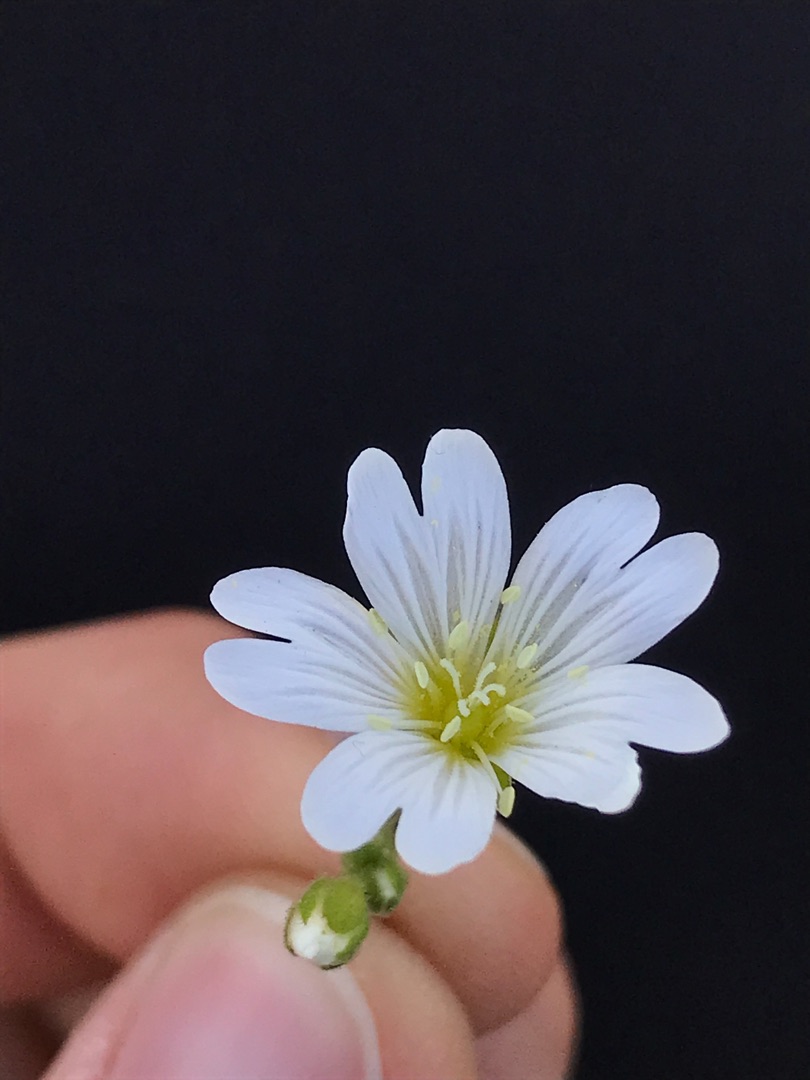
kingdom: Plantae
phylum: Tracheophyta
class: Magnoliopsida
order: Caryophyllales
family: Caryophyllaceae
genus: Cerastium
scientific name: Cerastium arvense
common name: Storblomstret hønsetarm
